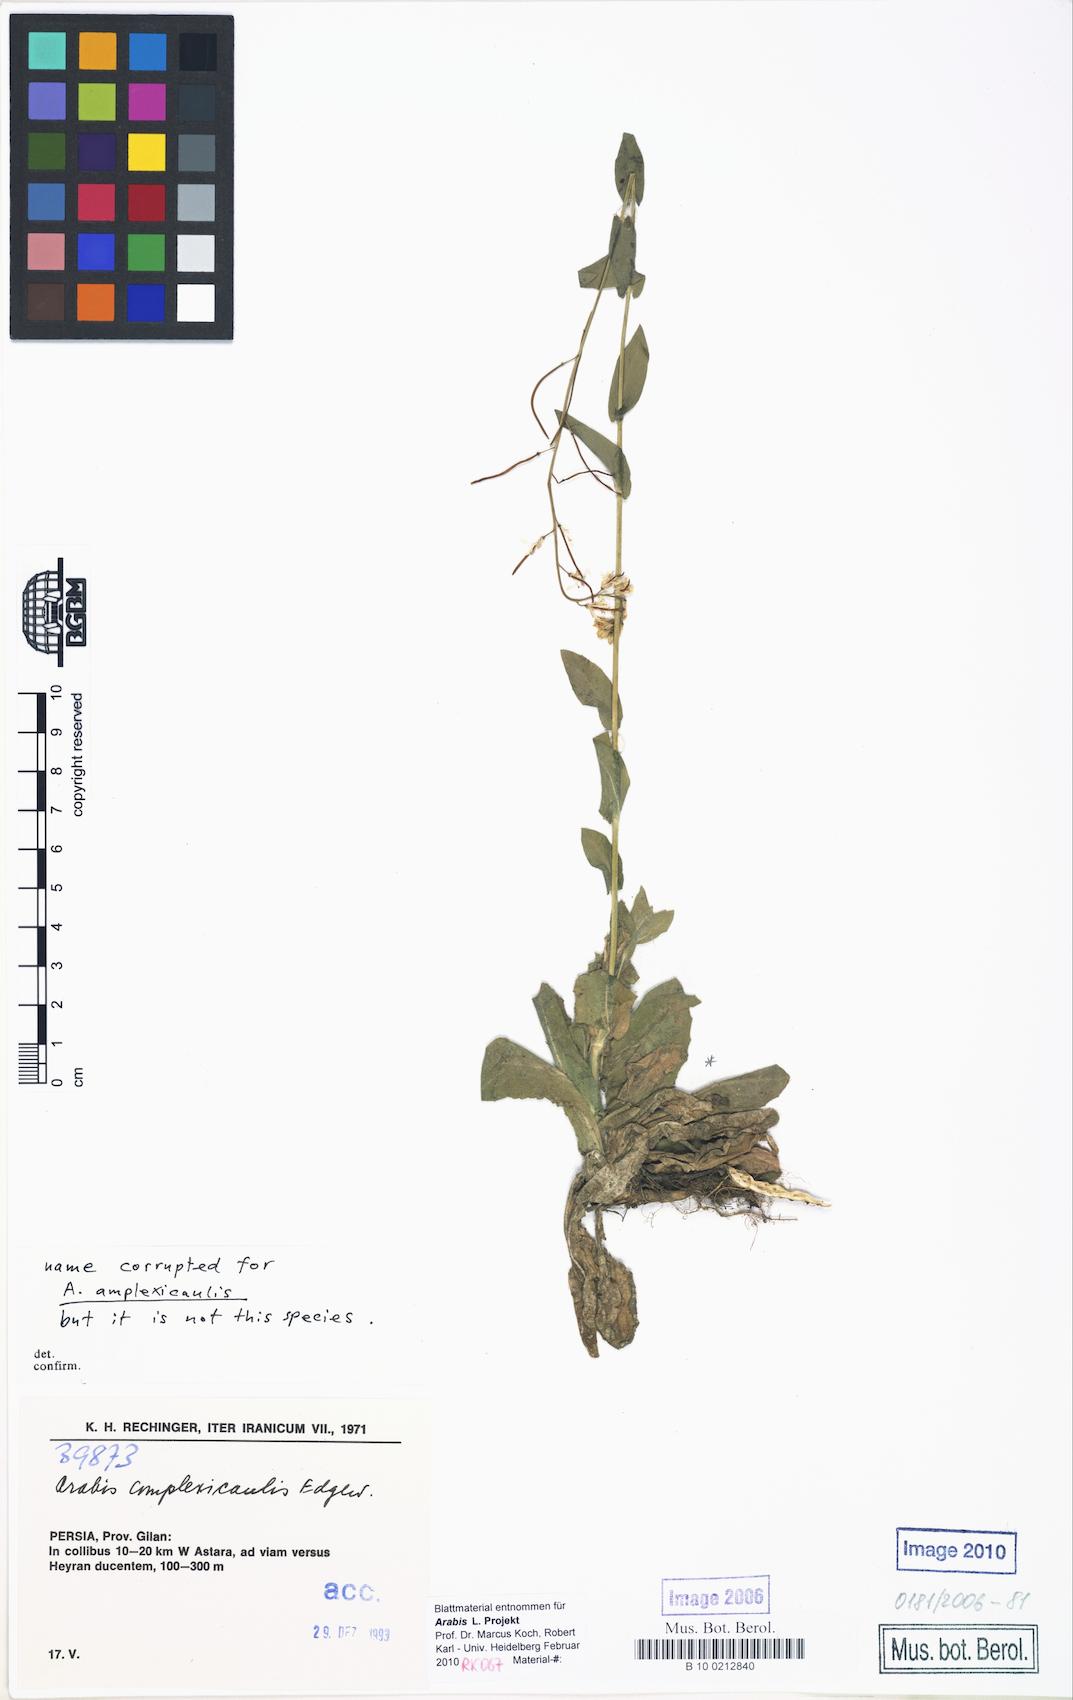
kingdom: Plantae
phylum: Tracheophyta
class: Magnoliopsida
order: Brassicales
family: Brassicaceae
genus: Turritis
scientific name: Turritis
